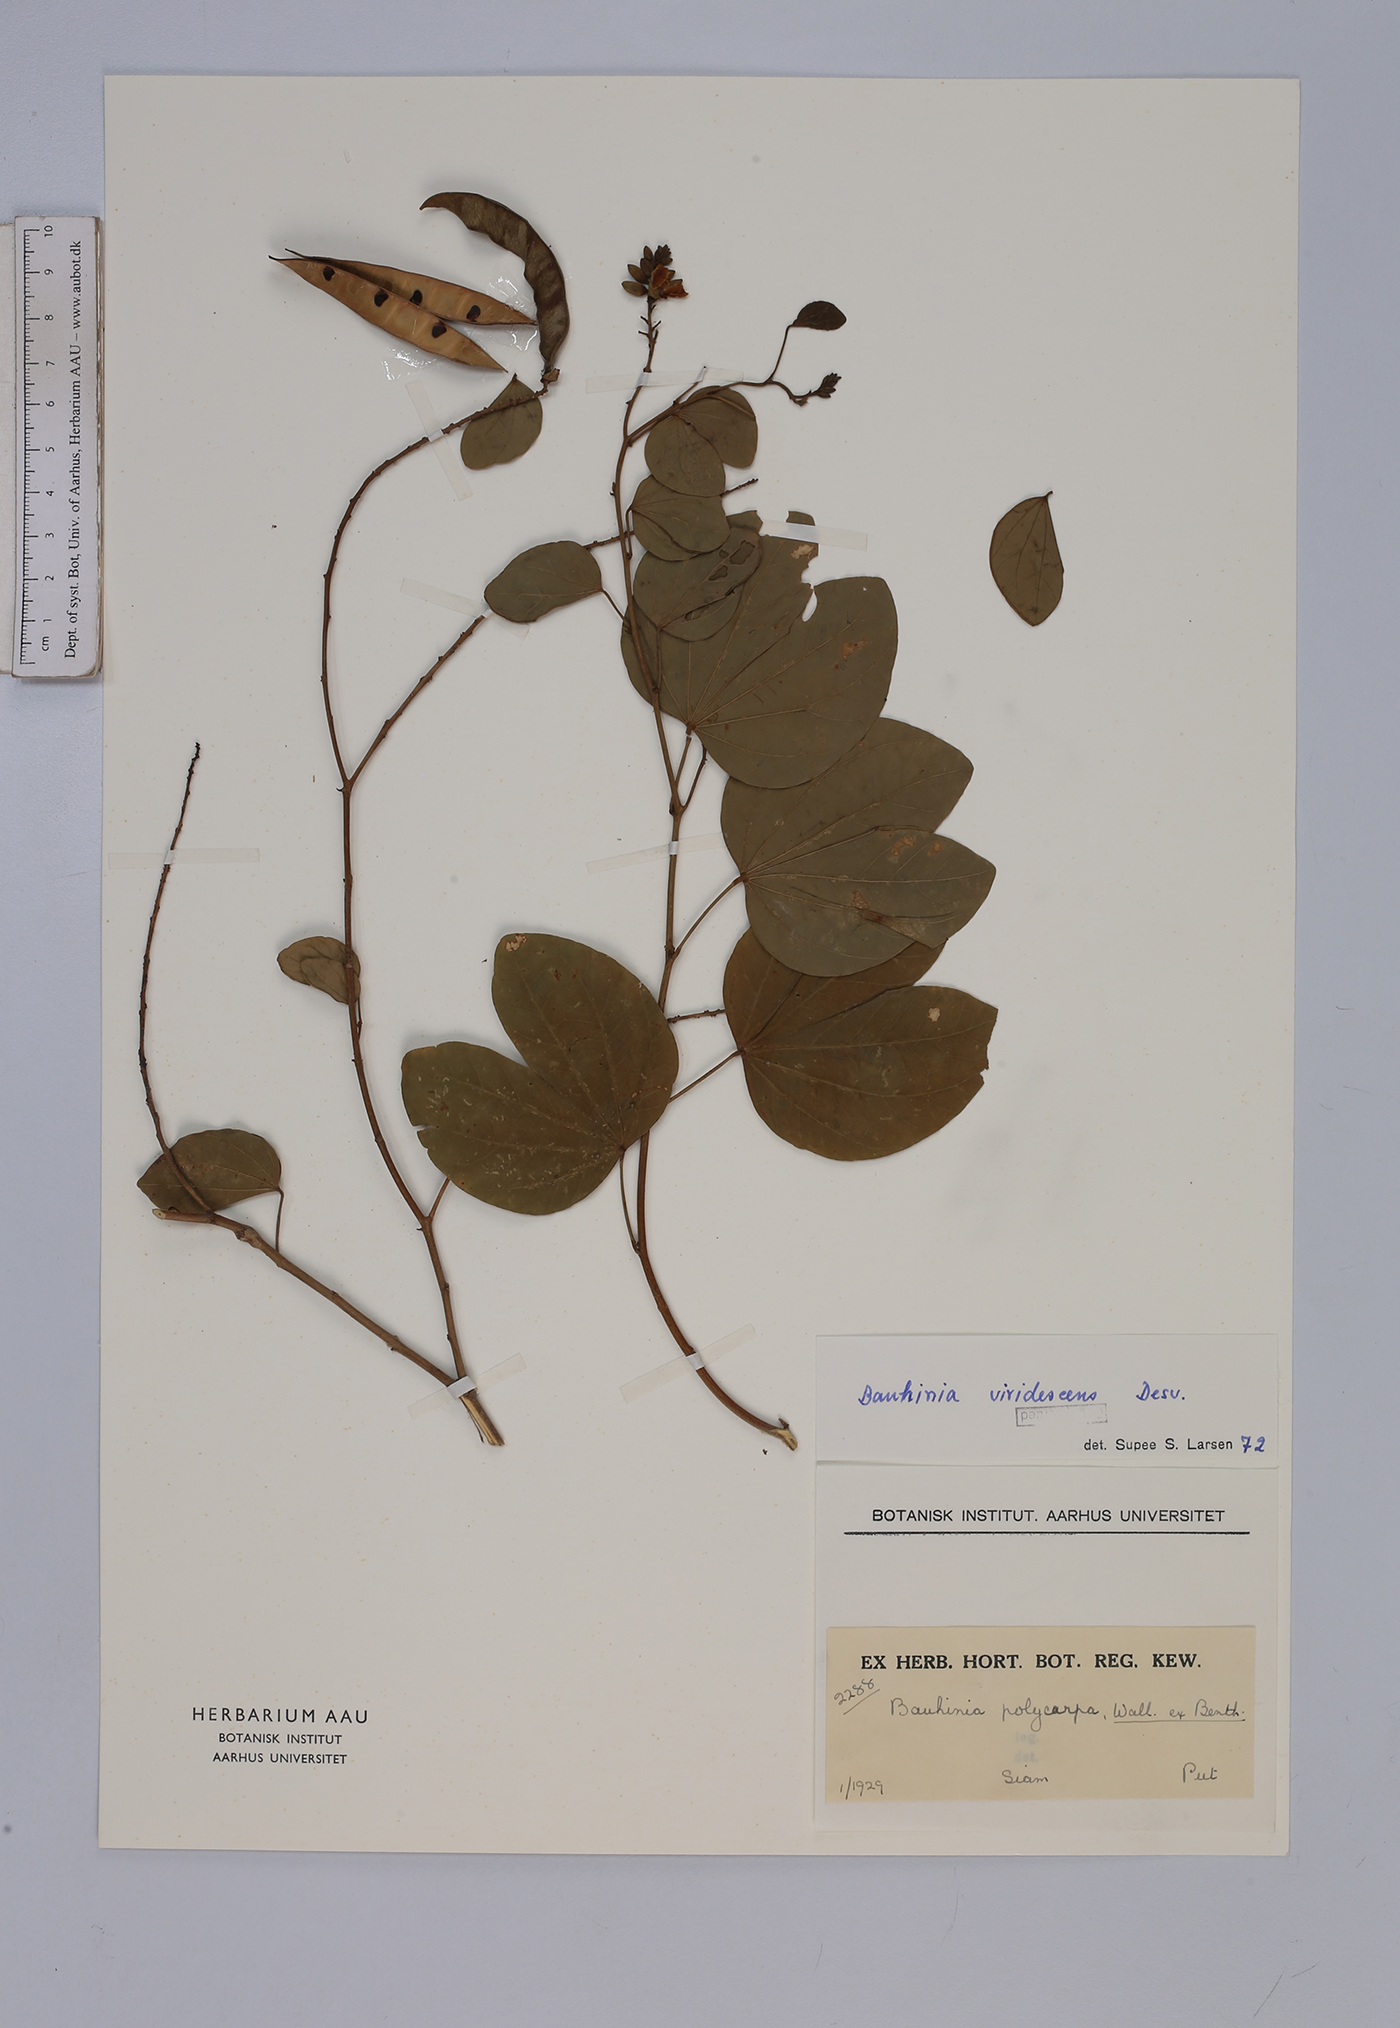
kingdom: Plantae
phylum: Tracheophyta
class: Magnoliopsida
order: Fabales
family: Fabaceae
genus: Bauhinia
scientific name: Bauhinia viridescens
